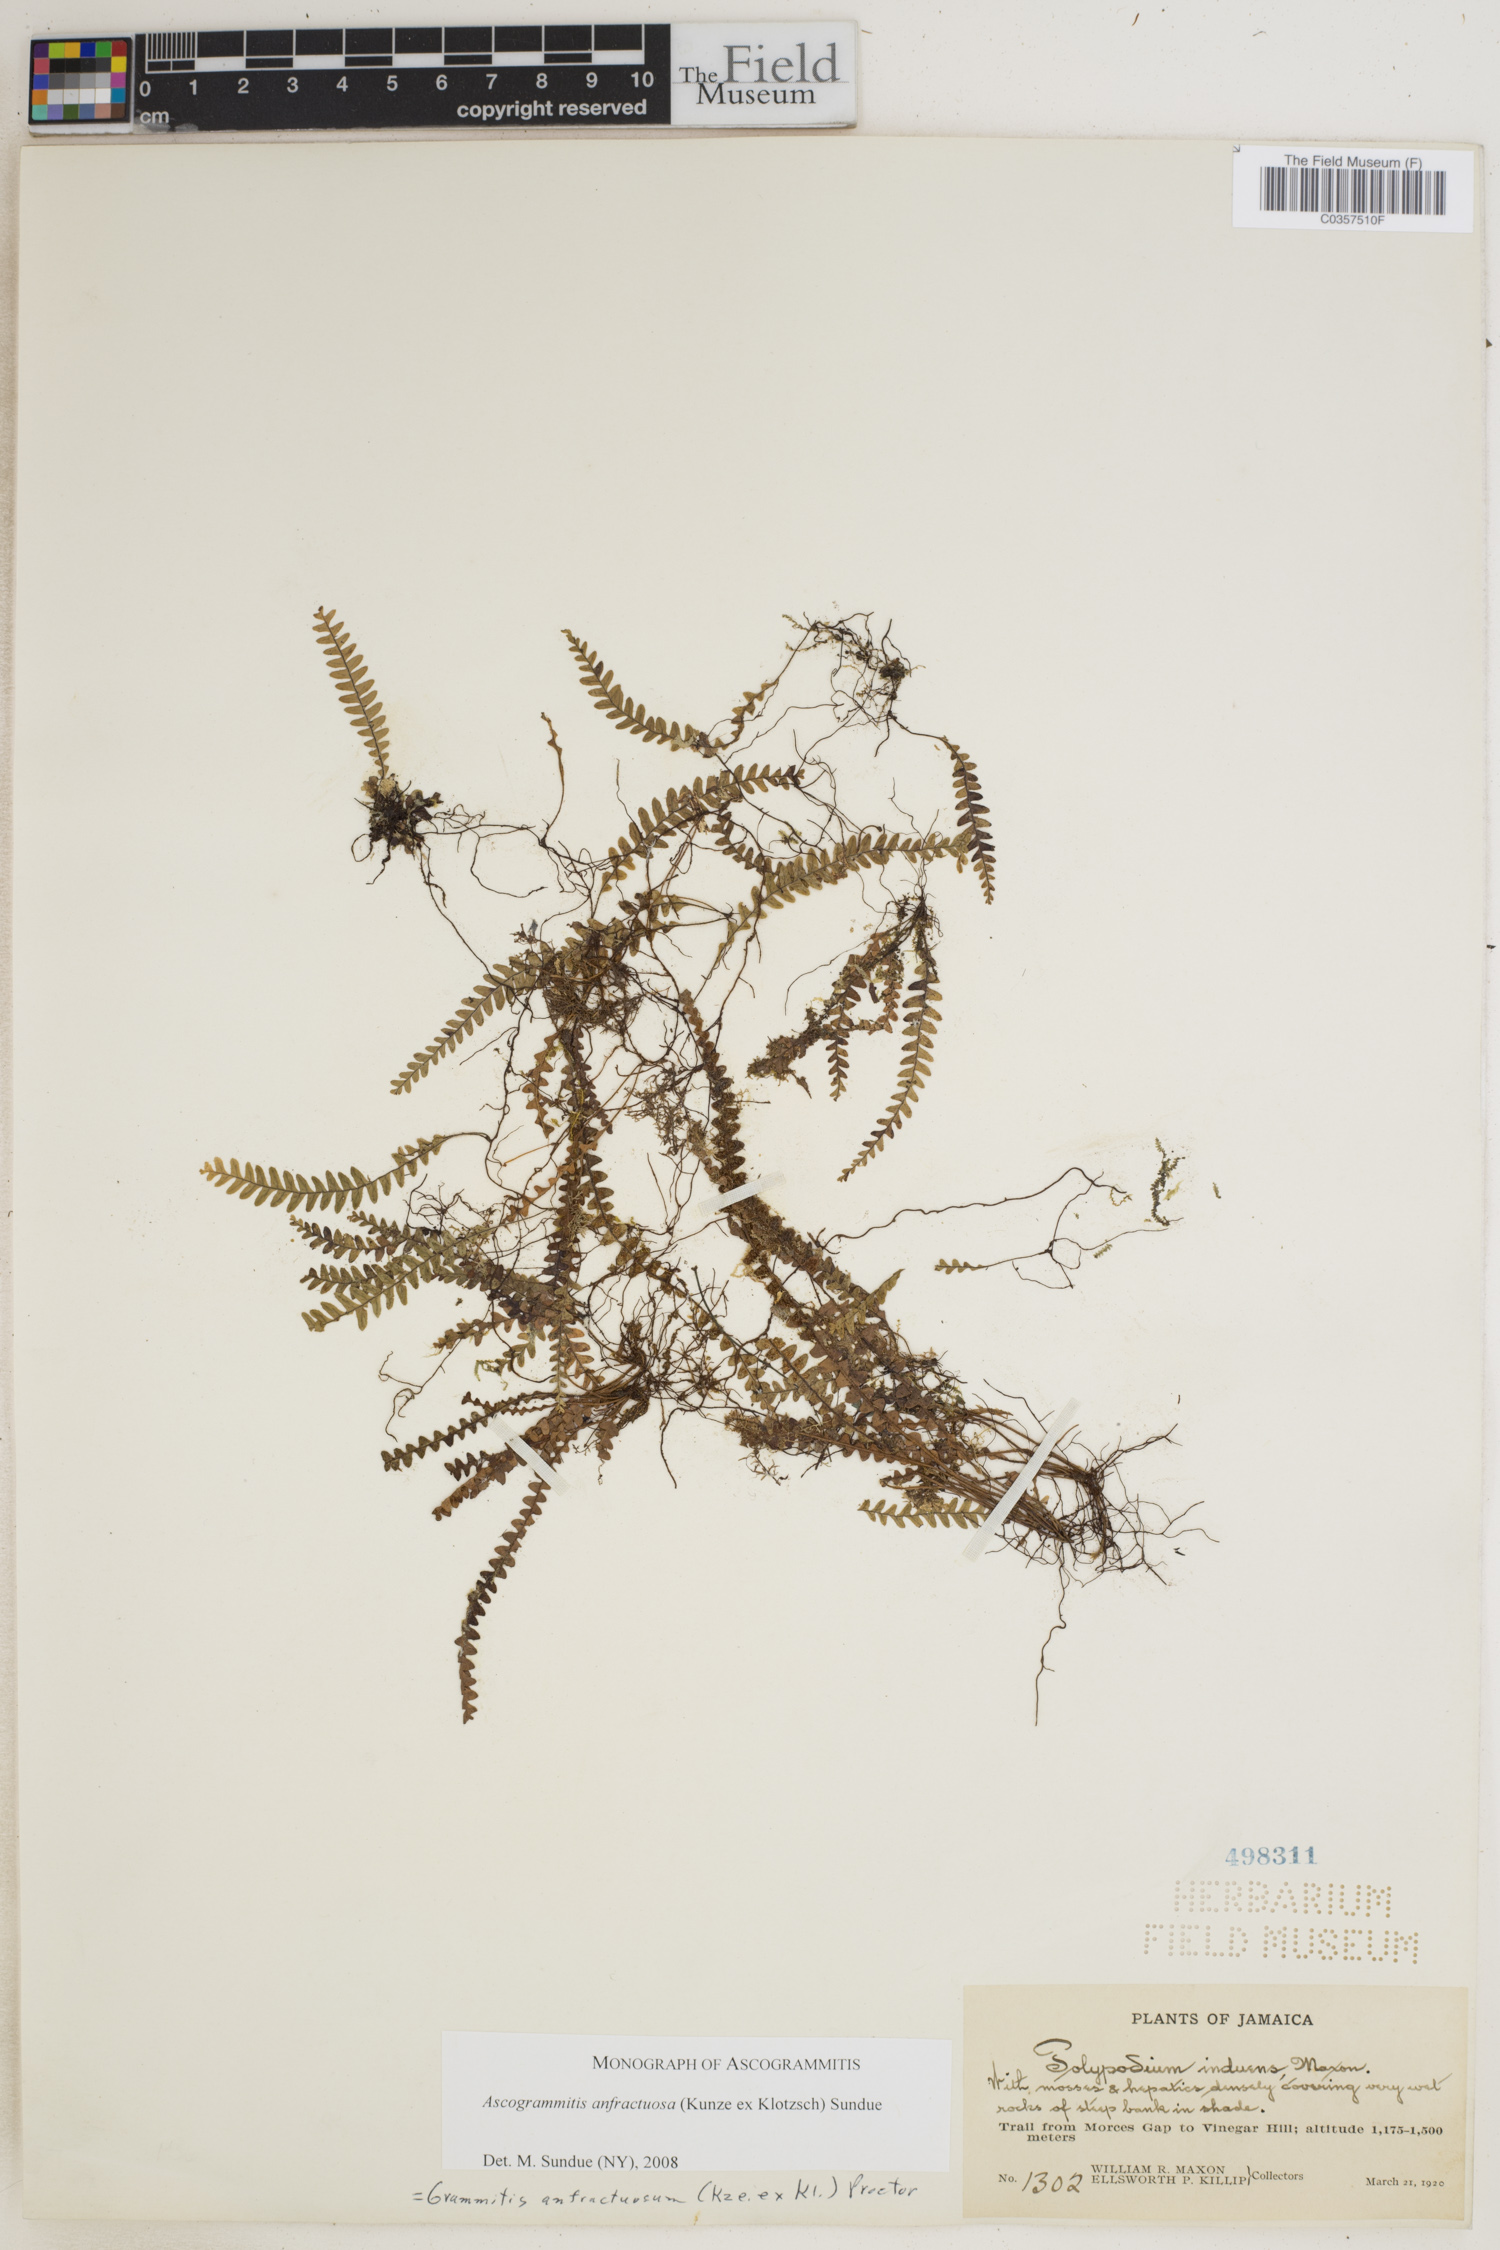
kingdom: Plantae
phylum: Tracheophyta
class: Polypodiopsida
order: Polypodiales
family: Polypodiaceae
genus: Ascogrammitis
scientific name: Ascogrammitis anfractuosa
